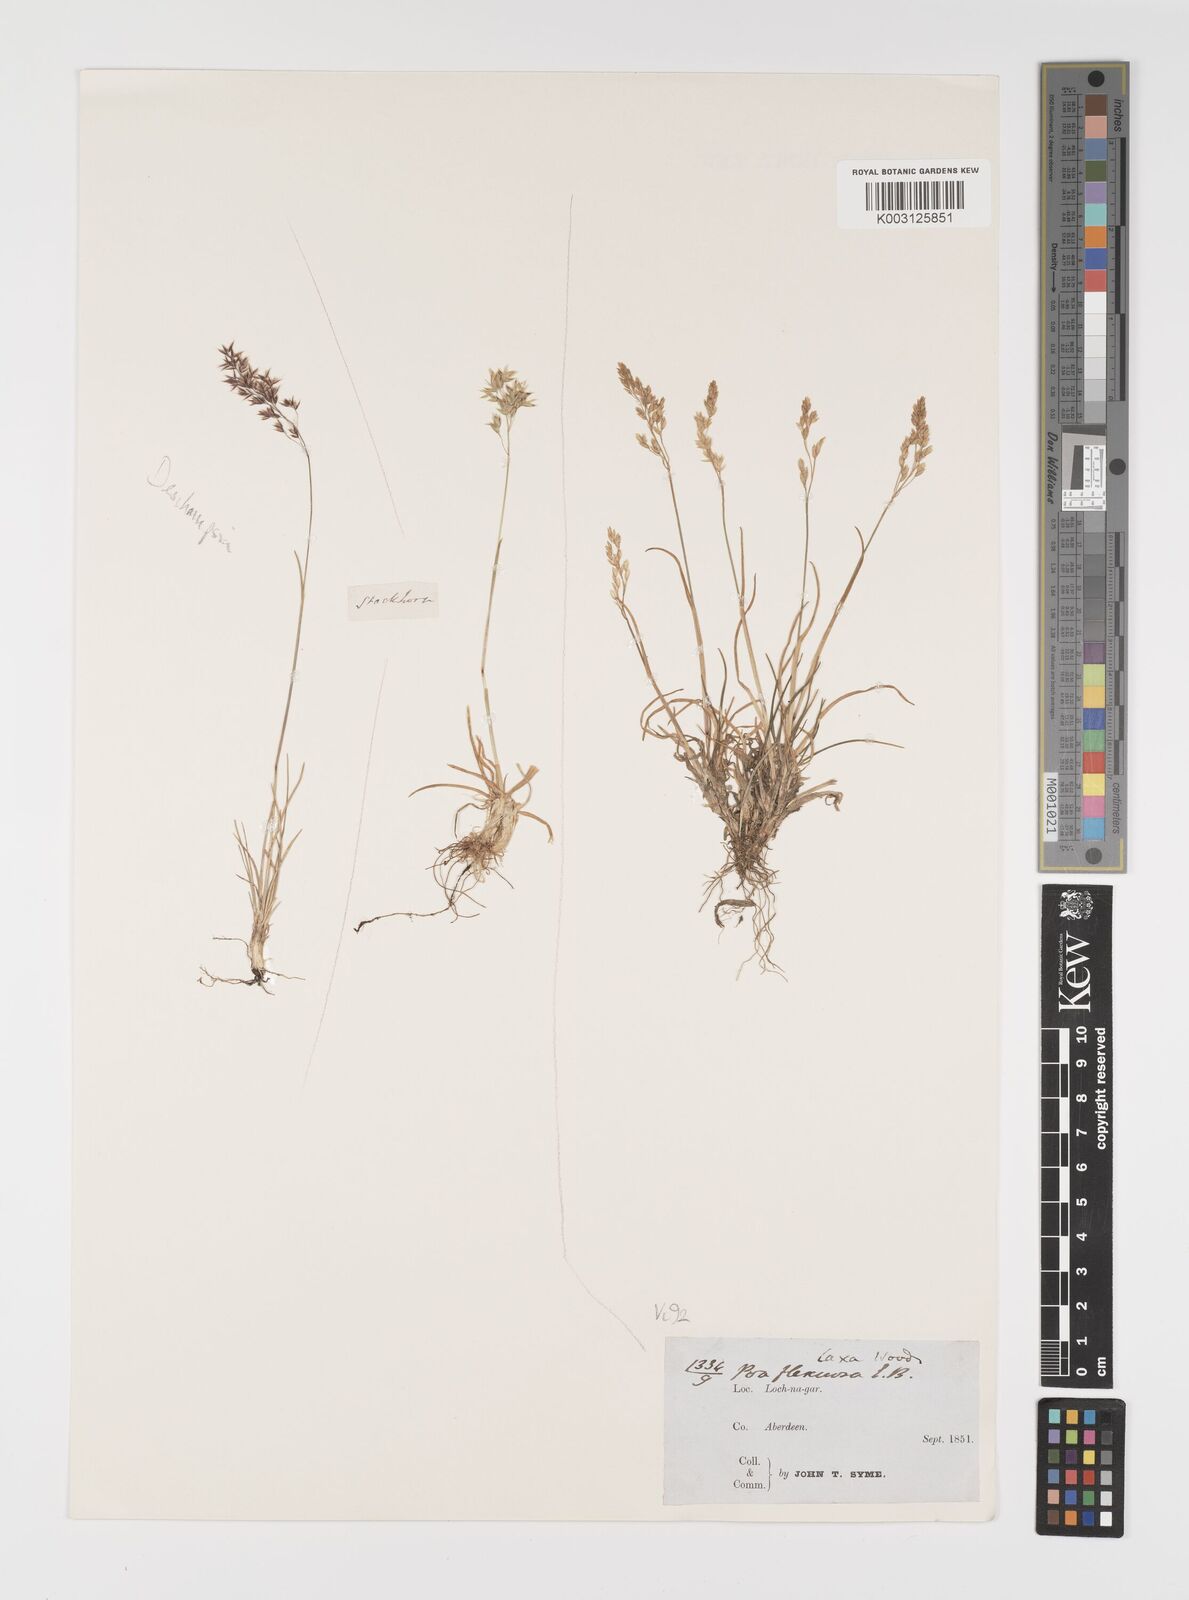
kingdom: Plantae
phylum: Tracheophyta
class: Liliopsida
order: Poales
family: Poaceae
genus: Eragrostis
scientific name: Eragrostis cilianensis
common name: Stinkgrass
